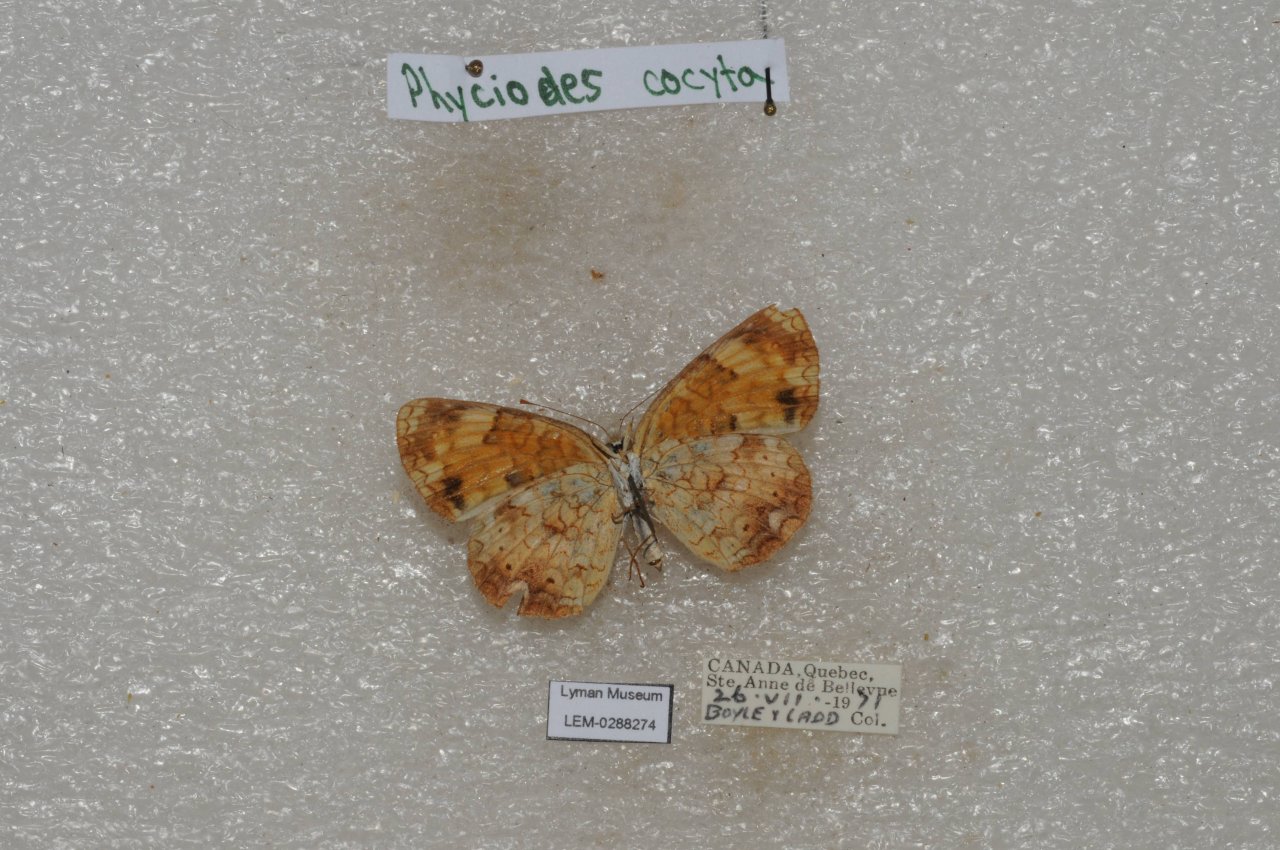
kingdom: Animalia
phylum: Arthropoda
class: Insecta
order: Lepidoptera
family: Nymphalidae
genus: Phyciodes
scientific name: Phyciodes tharos
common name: Northern Crescent
